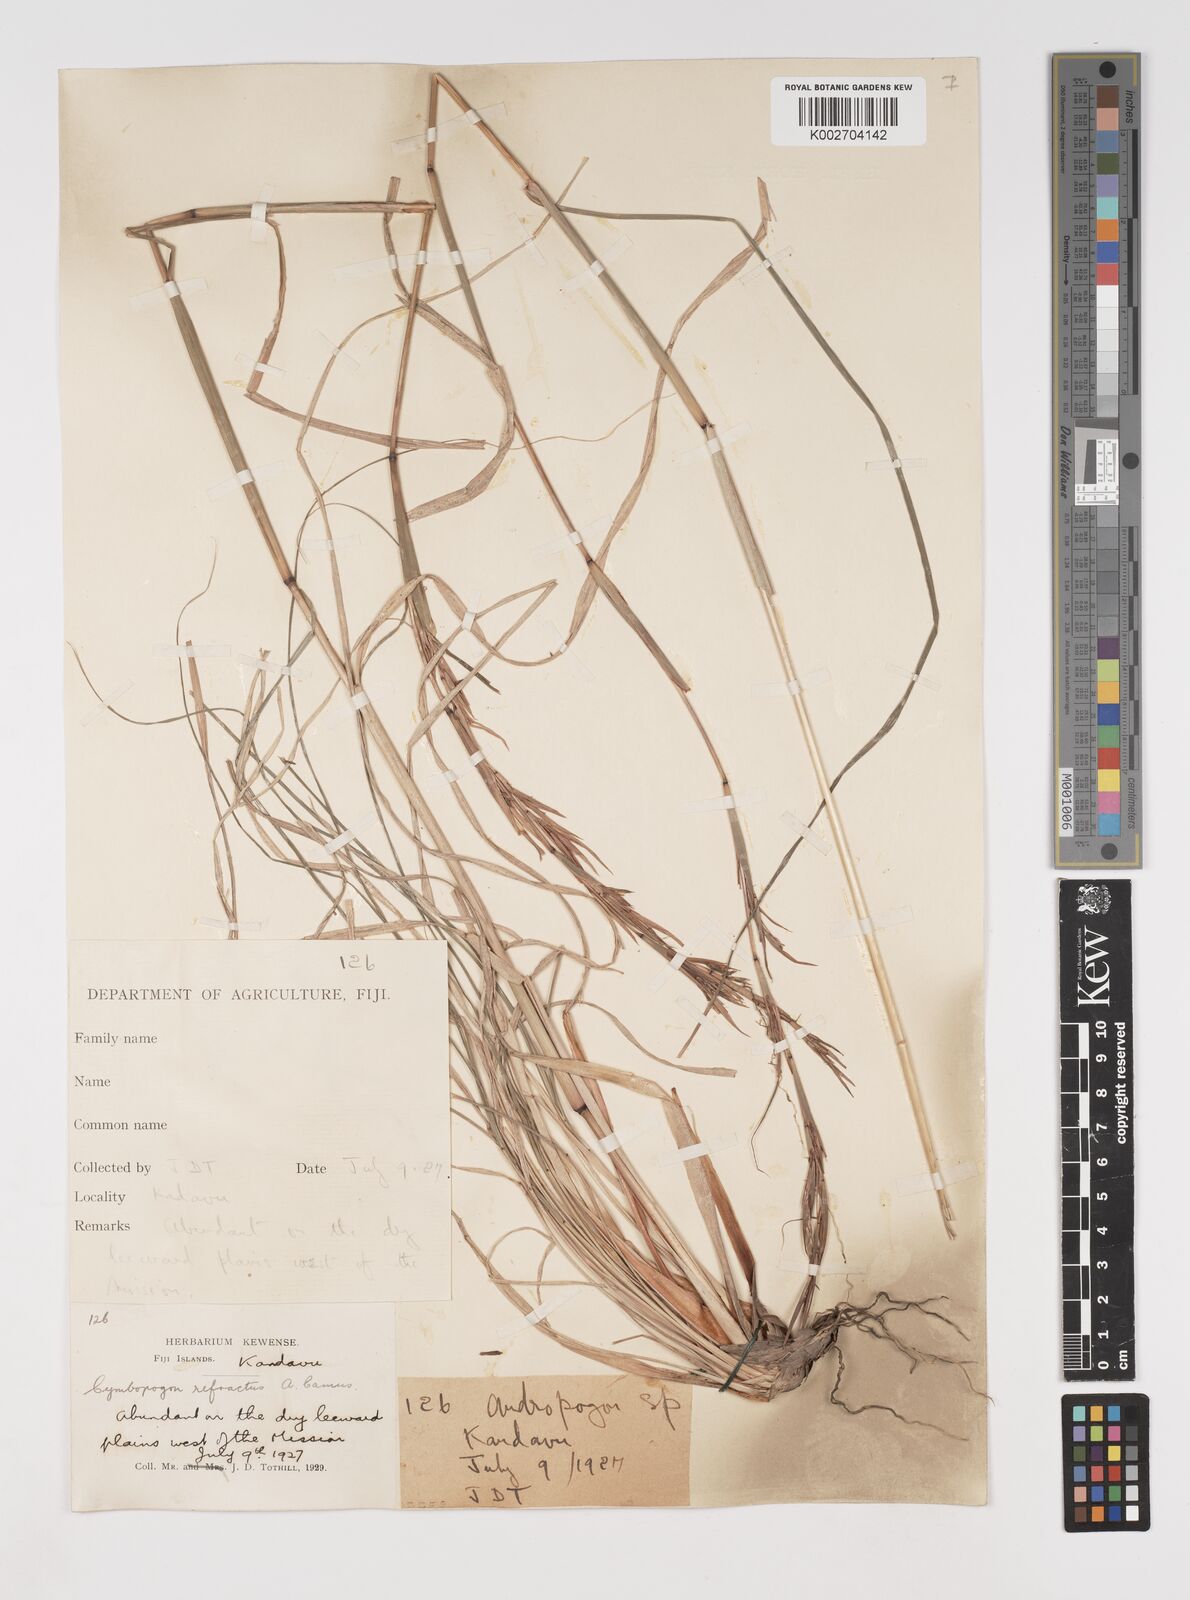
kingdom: Plantae
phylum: Tracheophyta
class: Liliopsida
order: Poales
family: Poaceae
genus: Cymbopogon
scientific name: Cymbopogon refractus
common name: Barbwire grass
